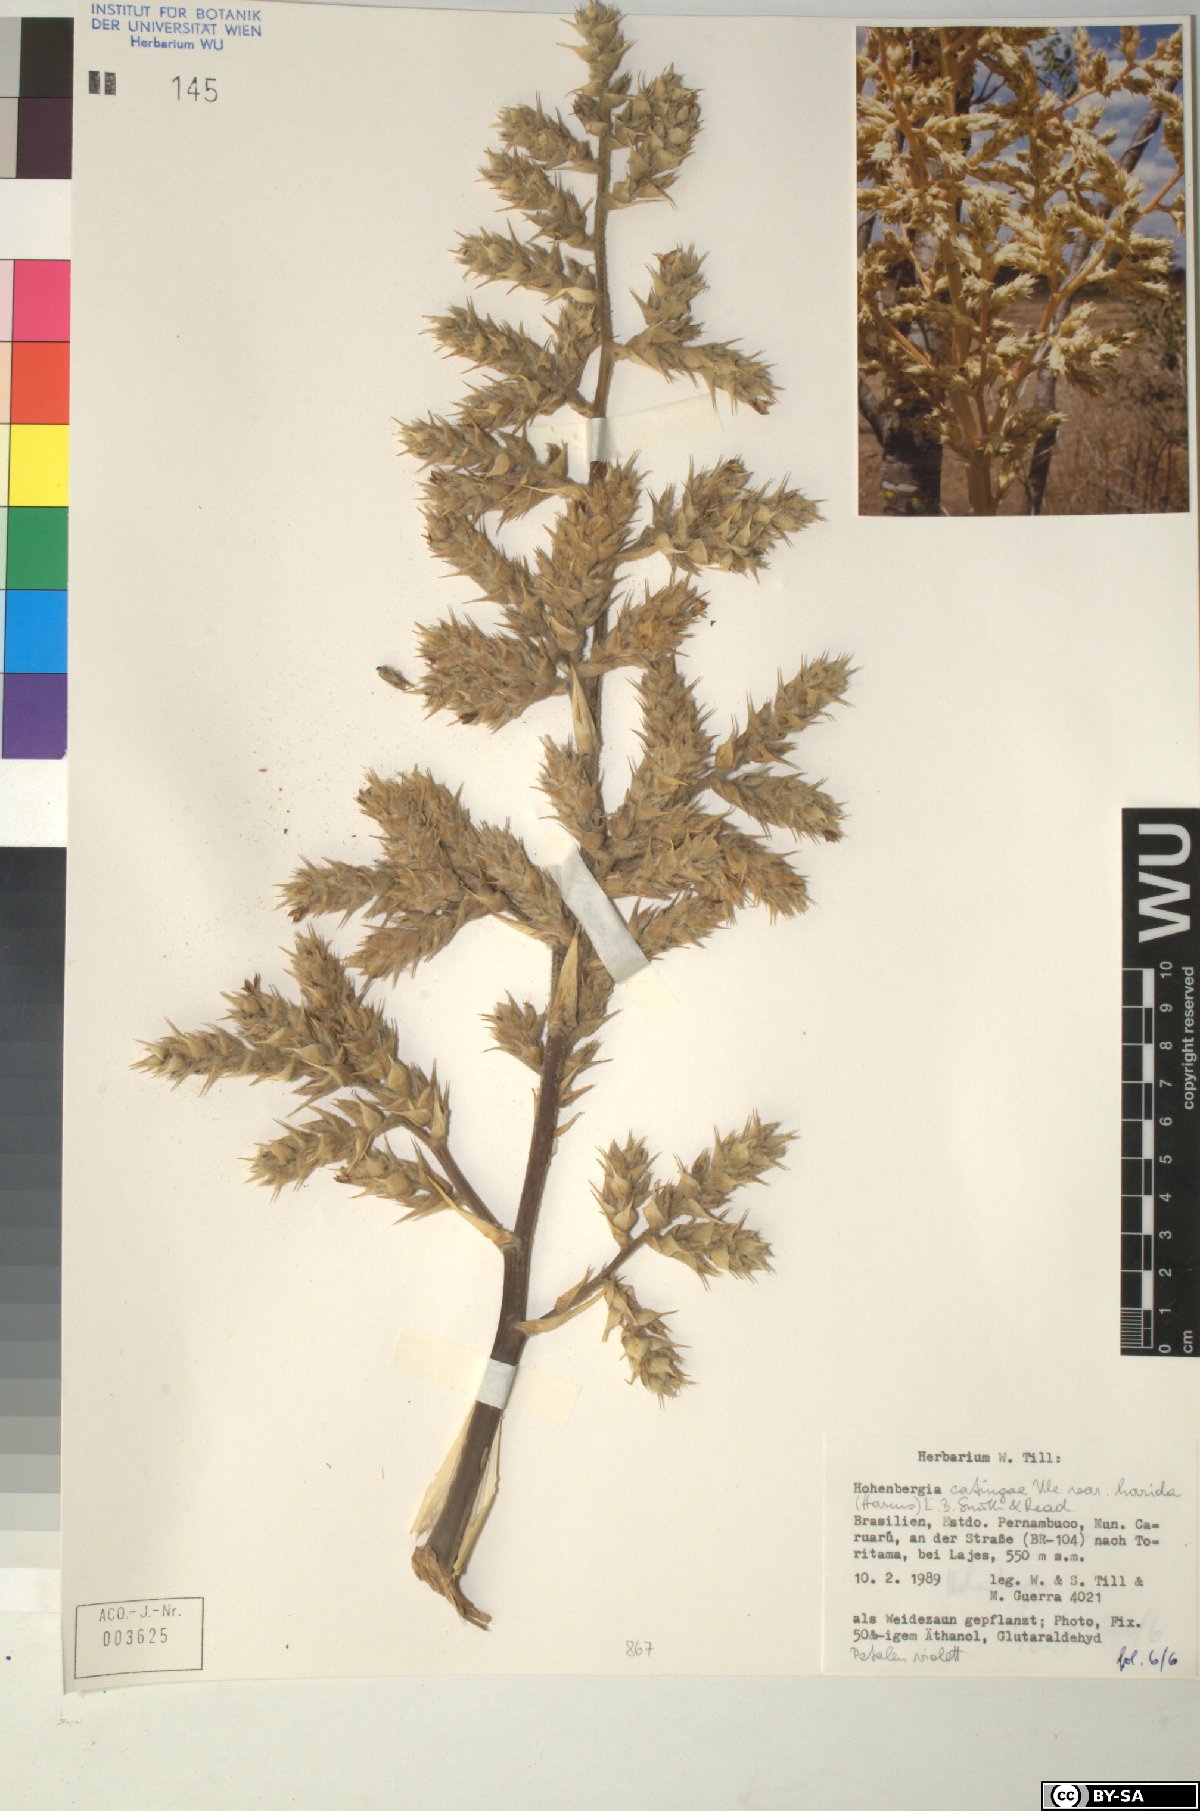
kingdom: Plantae
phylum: Tracheophyta
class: Liliopsida
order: Poales
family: Bromeliaceae
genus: Hohenbergia
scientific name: Hohenbergia
